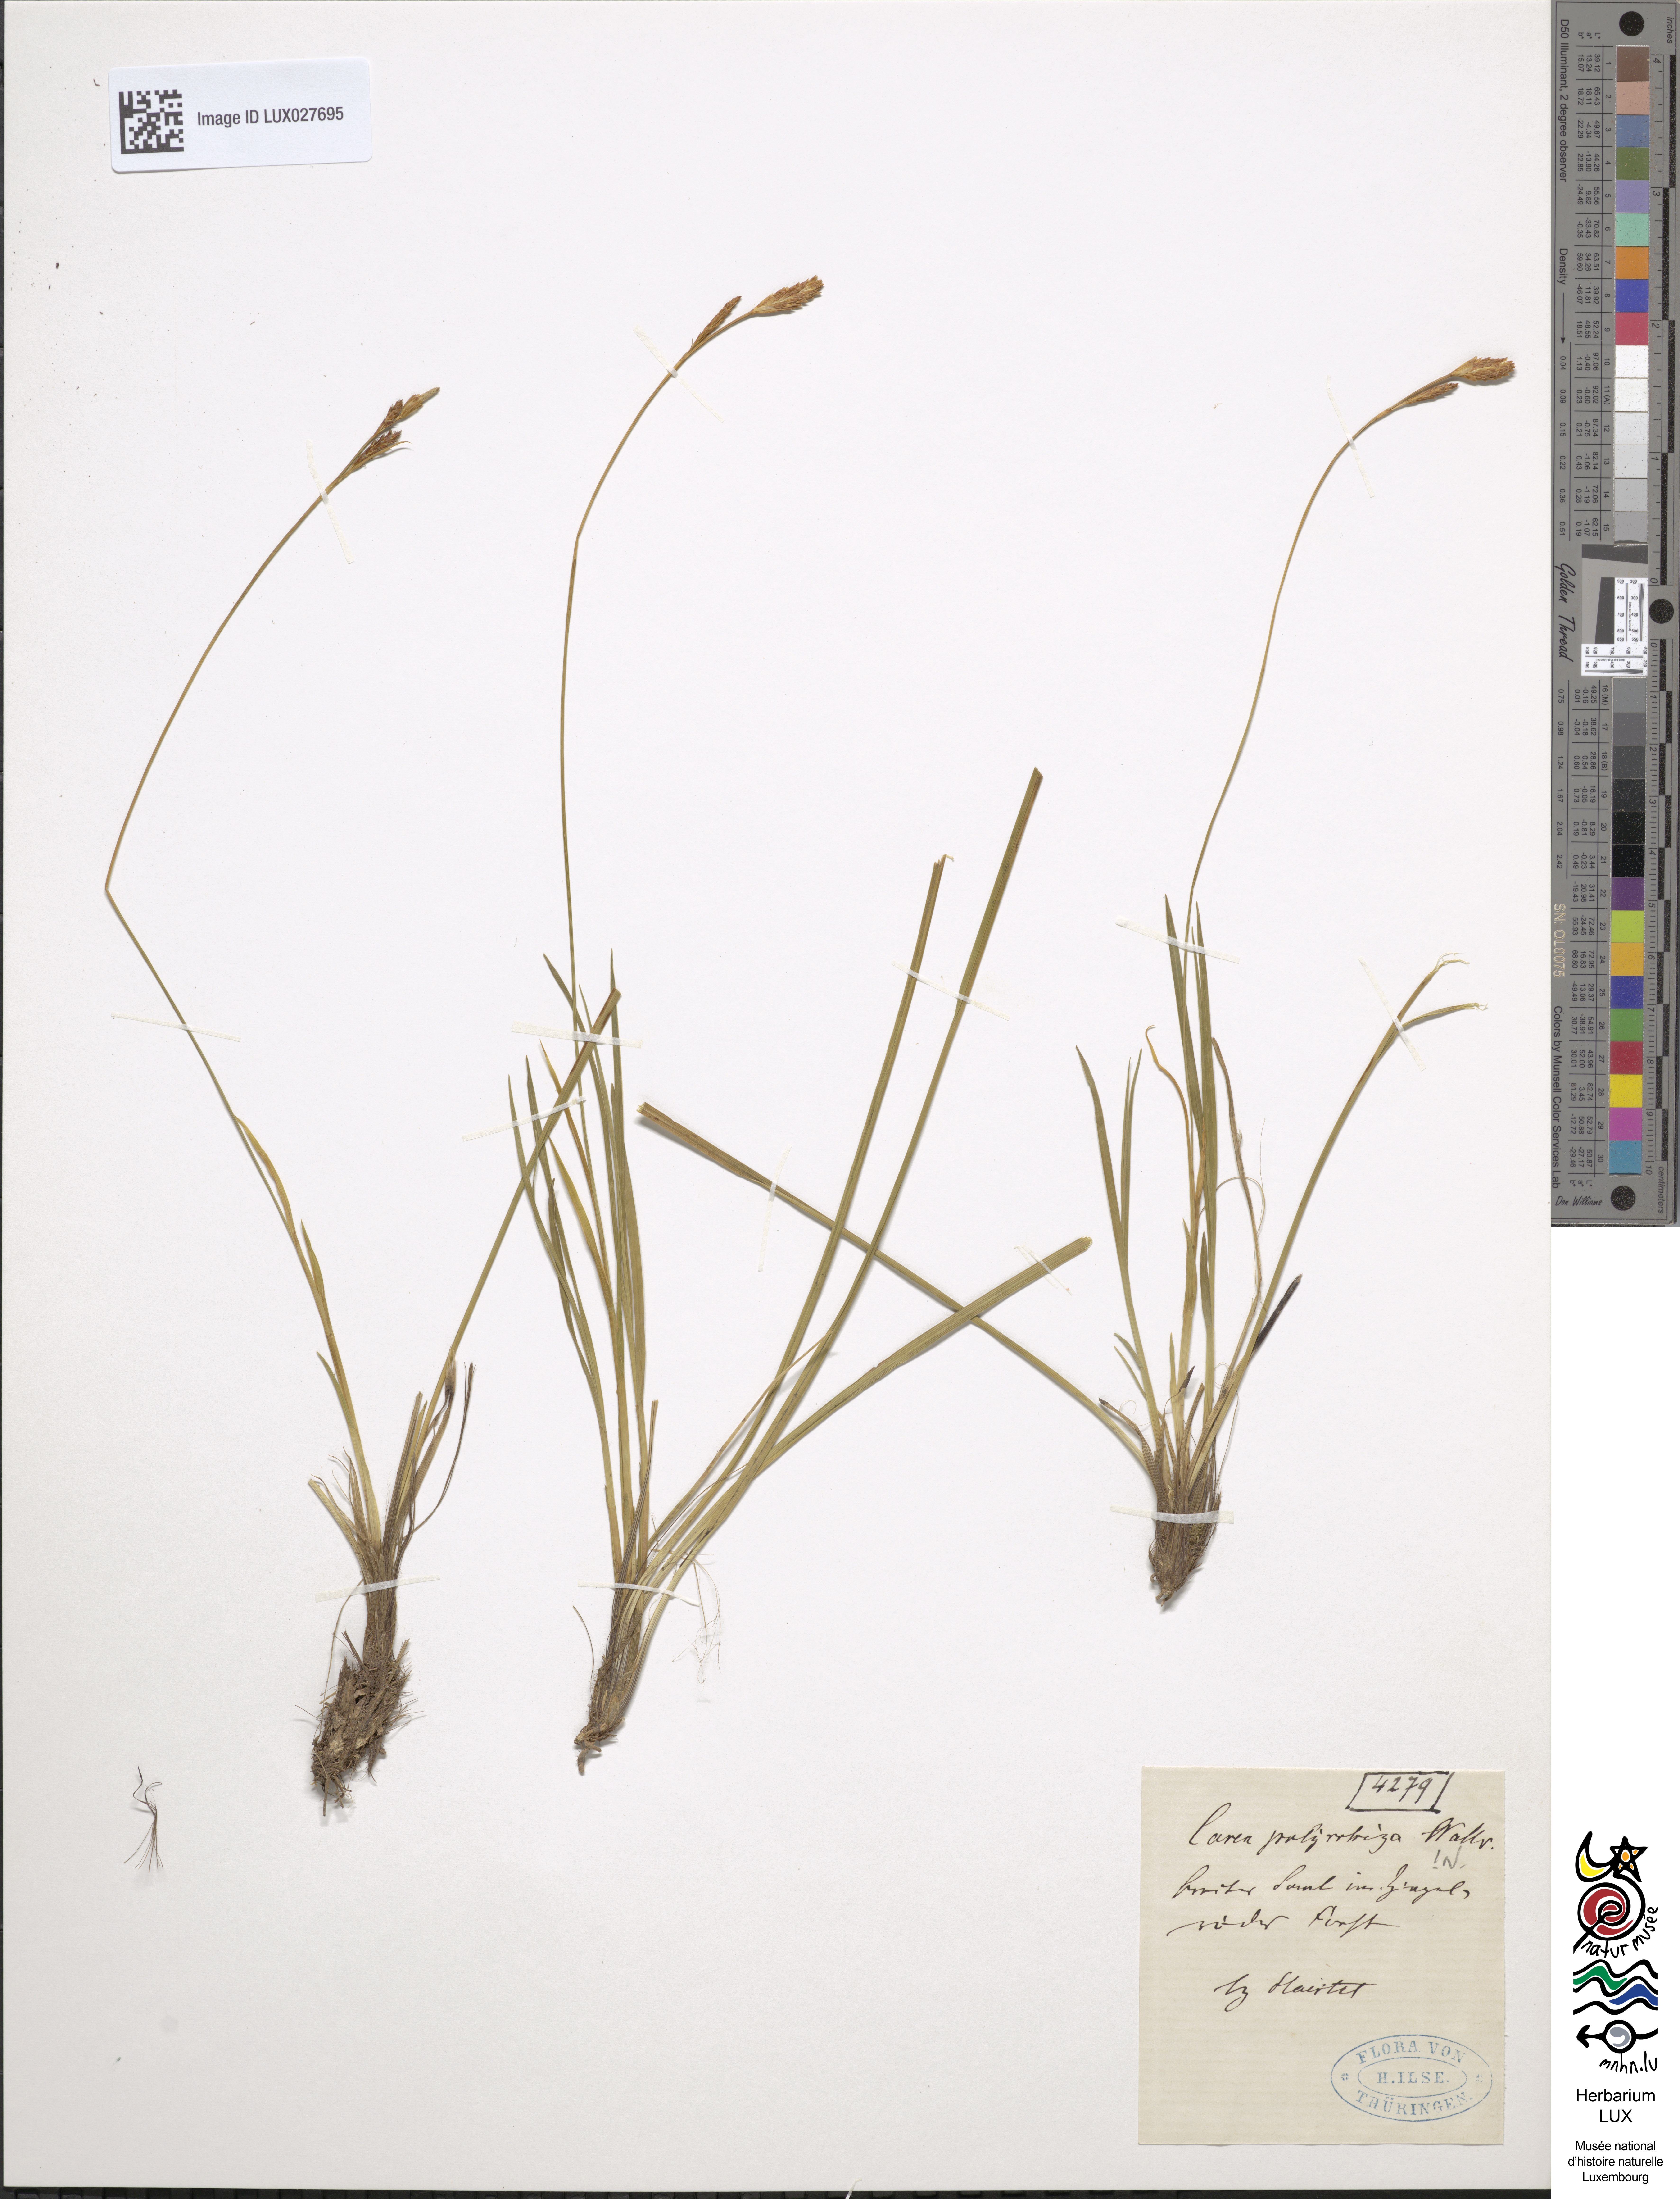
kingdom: Plantae
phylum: Tracheophyta
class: Liliopsida
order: Poales
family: Cyperaceae
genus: Carex
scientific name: Carex umbrosa
